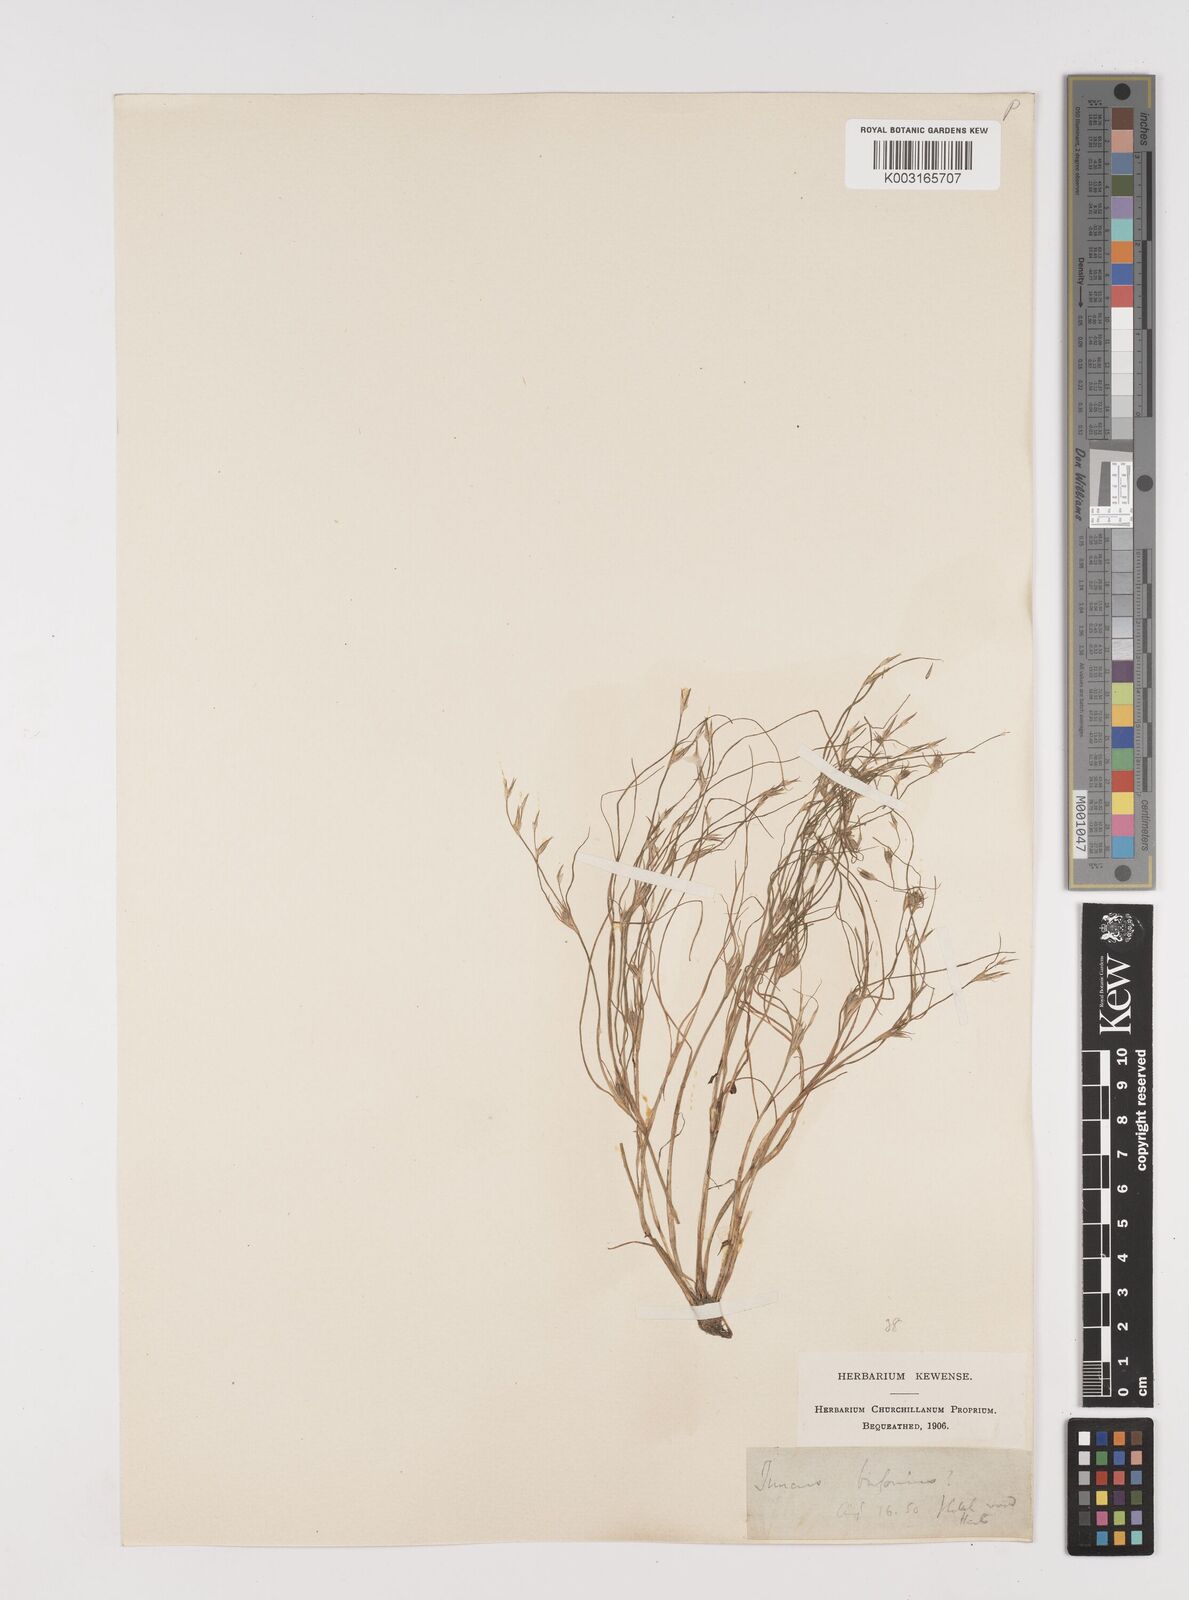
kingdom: Plantae
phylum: Tracheophyta
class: Liliopsida
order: Poales
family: Juncaceae
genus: Juncus
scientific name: Juncus bufonius
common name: Toad rush
